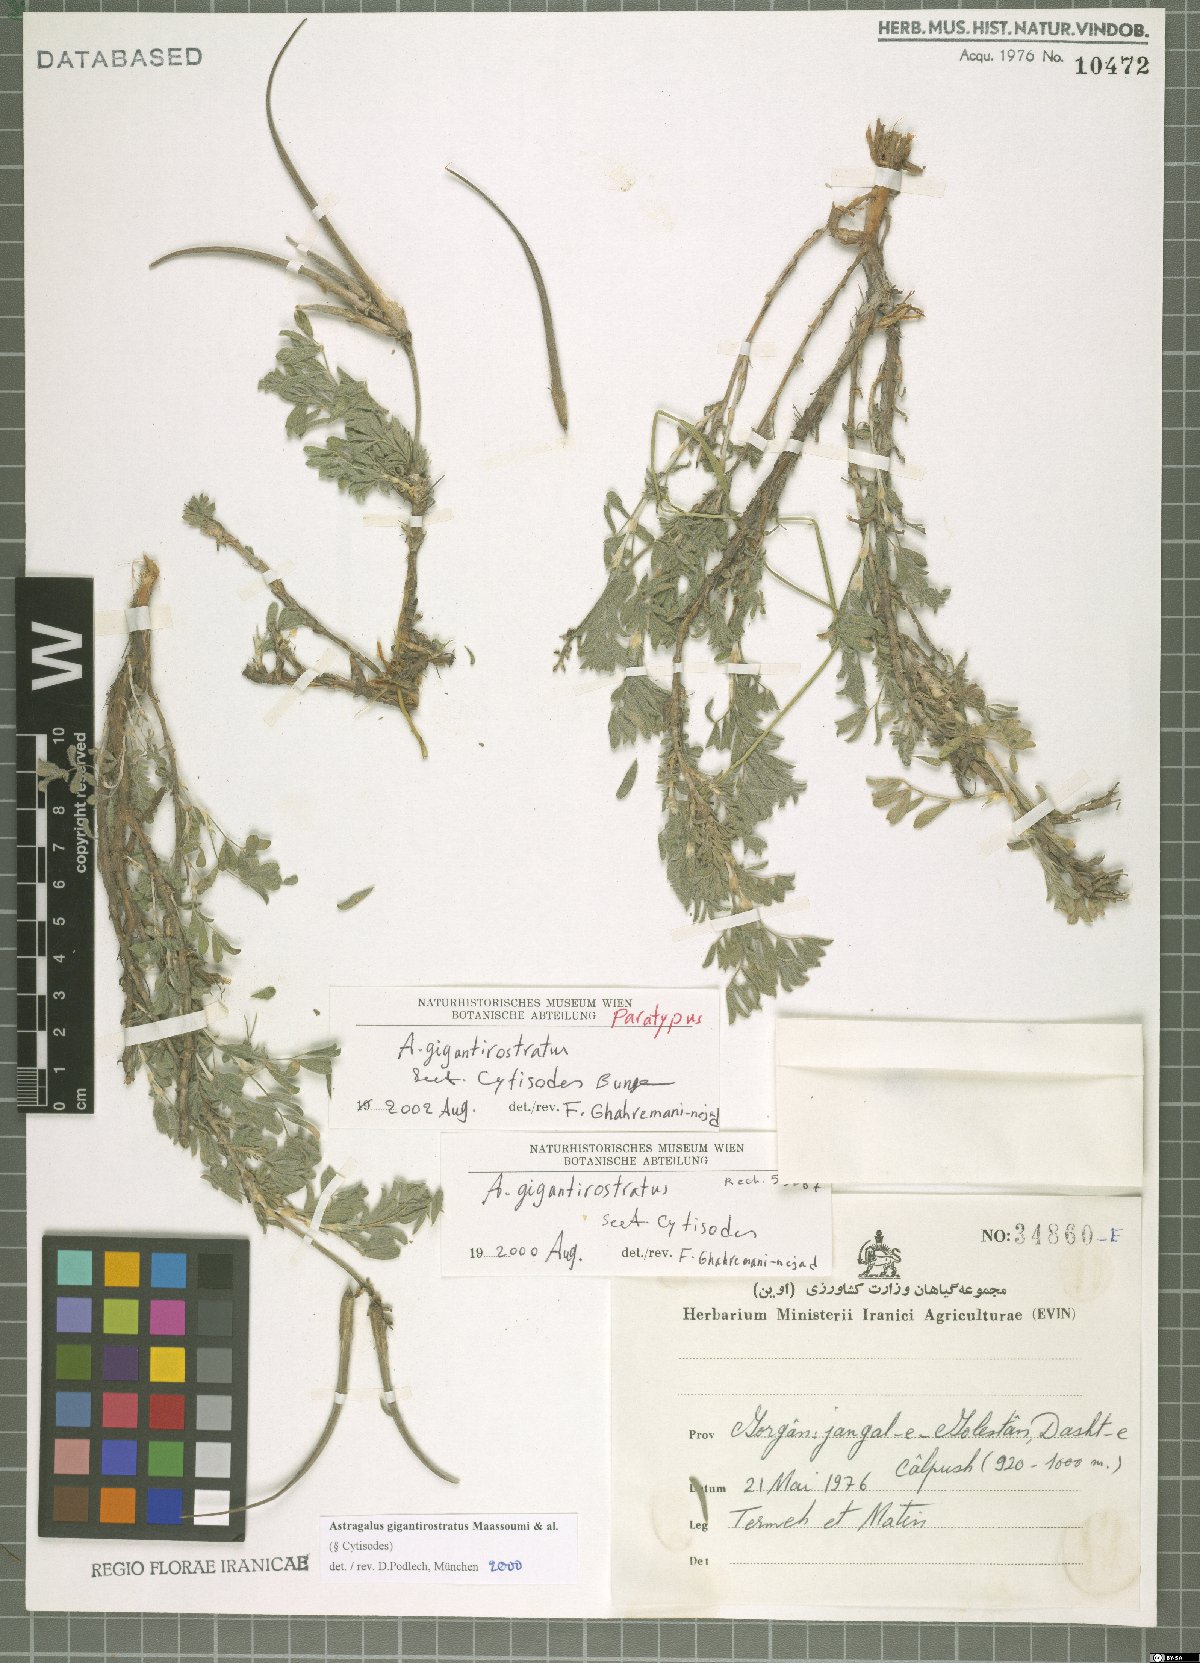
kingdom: Plantae
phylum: Tracheophyta
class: Magnoliopsida
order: Fabales
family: Fabaceae
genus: Astragalus
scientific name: Astragalus gigantirostratus
